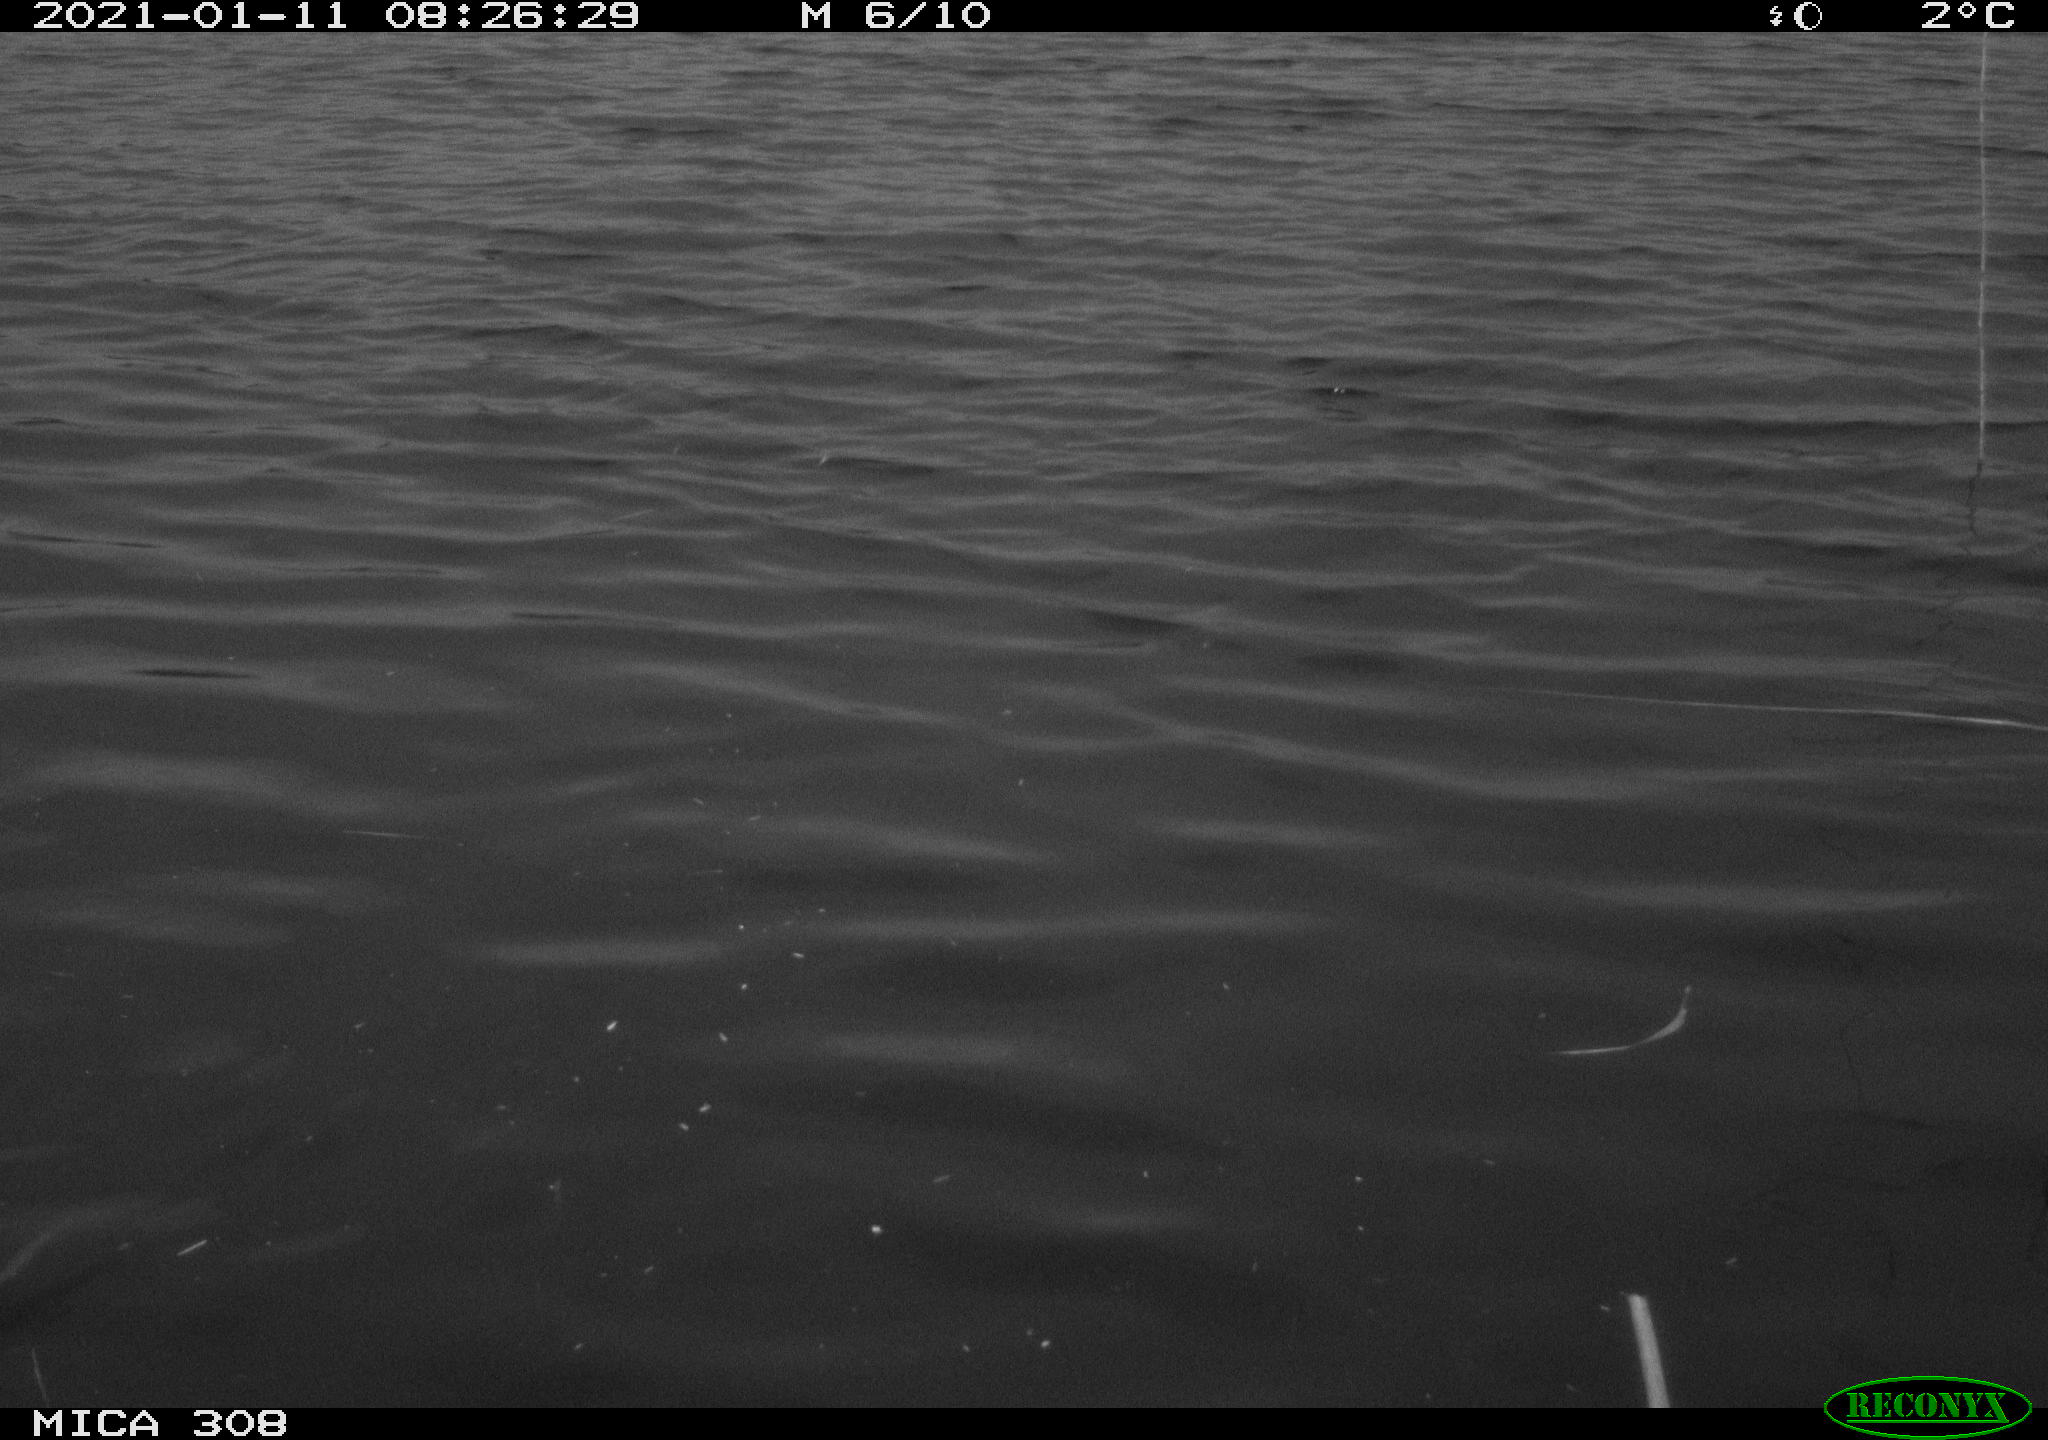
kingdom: Animalia
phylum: Chordata
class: Aves
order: Anseriformes
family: Anatidae
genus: Anas
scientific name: Anas platyrhynchos
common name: Mallard
